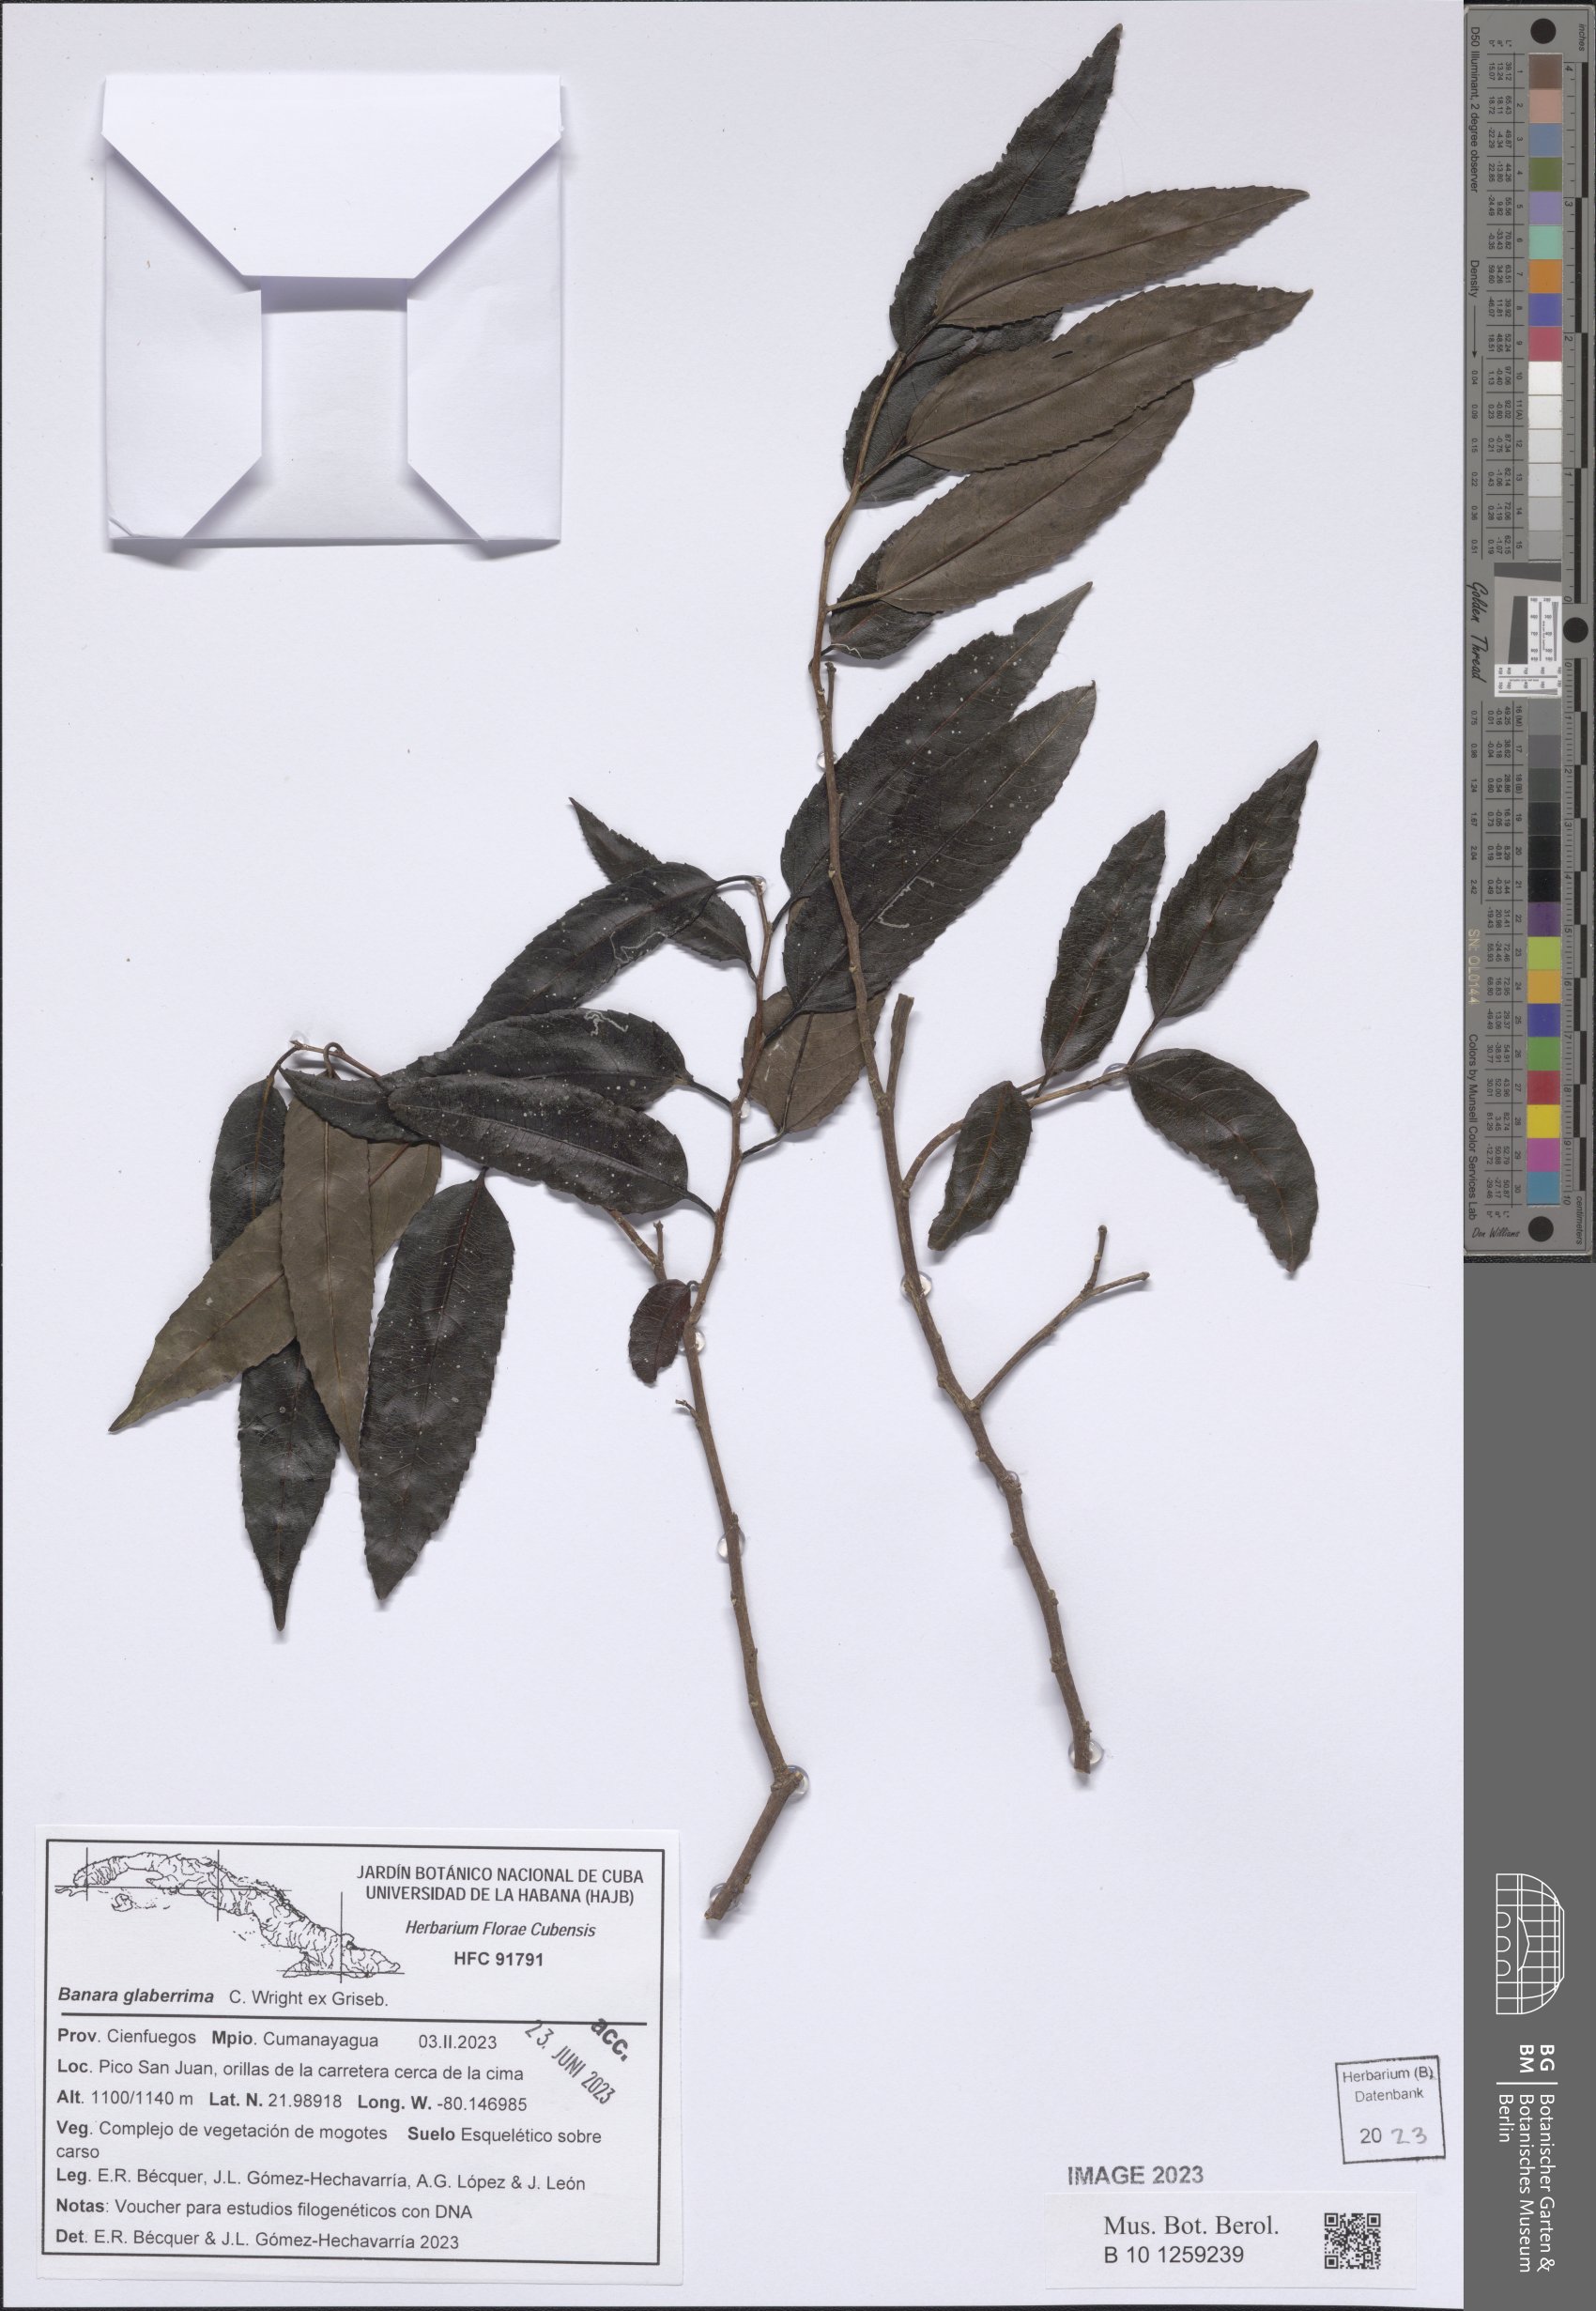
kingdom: Plantae
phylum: Tracheophyta
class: Magnoliopsida
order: Malpighiales
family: Salicaceae
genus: Banara
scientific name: Banara minutiflora
